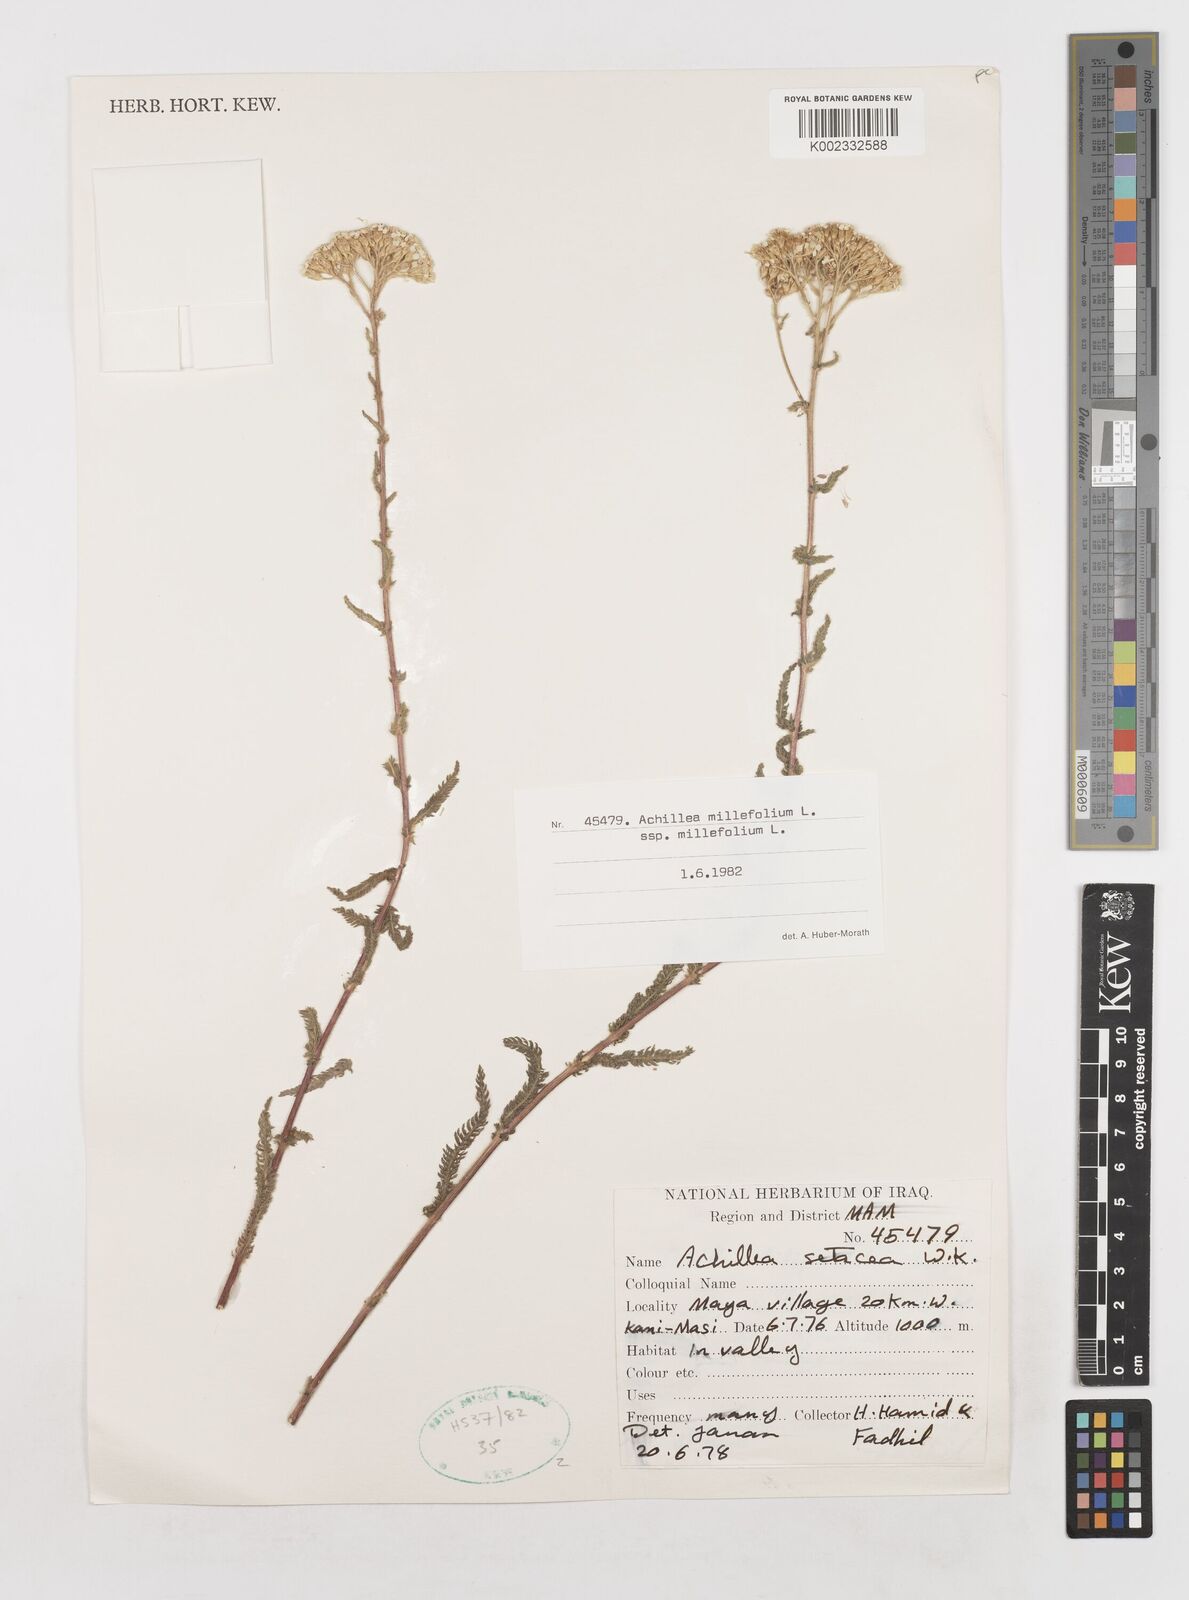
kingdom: Plantae
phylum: Tracheophyta
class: Magnoliopsida
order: Asterales
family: Asteraceae
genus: Achillea
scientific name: Achillea millefolium
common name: Yarrow
